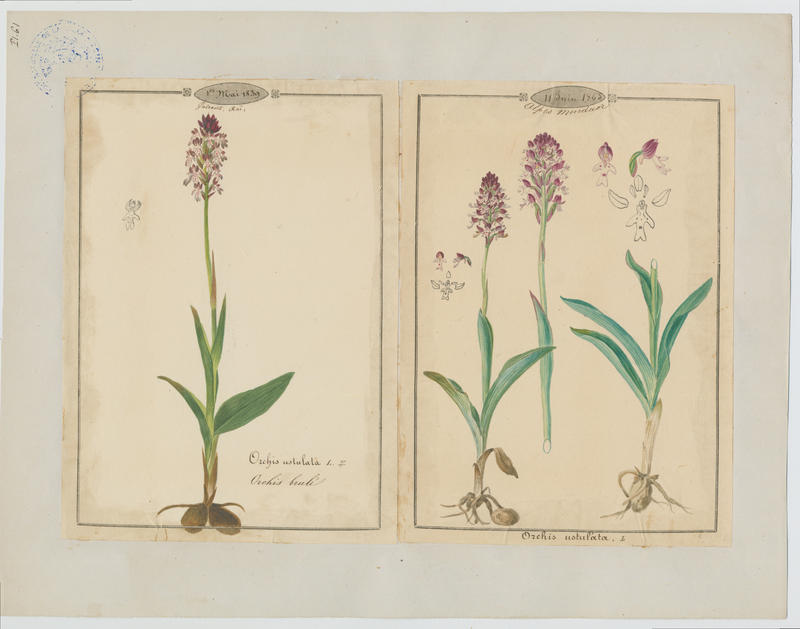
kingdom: Plantae
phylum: Tracheophyta
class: Liliopsida
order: Asparagales
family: Orchidaceae
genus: Neotinea
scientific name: Neotinea ustulata
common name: Burnt orchid
